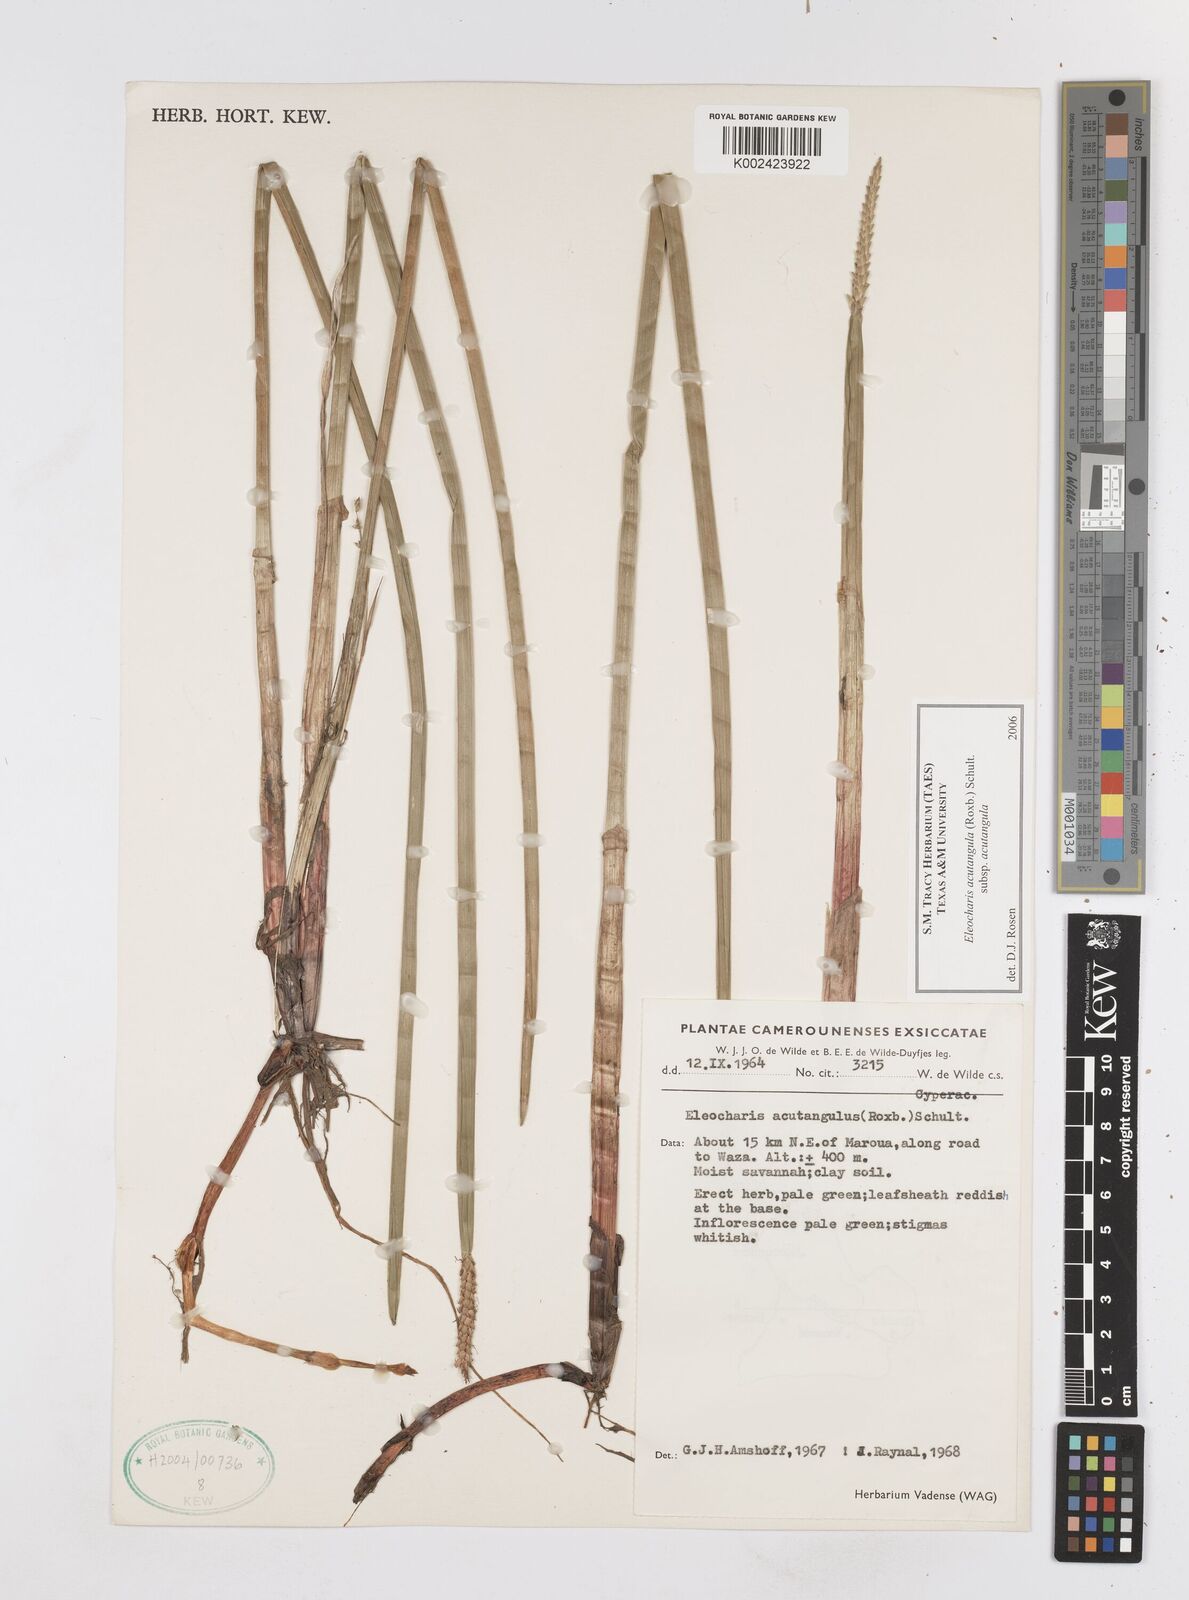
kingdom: Plantae
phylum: Tracheophyta
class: Liliopsida
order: Poales
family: Cyperaceae
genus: Eleocharis
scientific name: Eleocharis acutangula
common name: Acute spikerush
